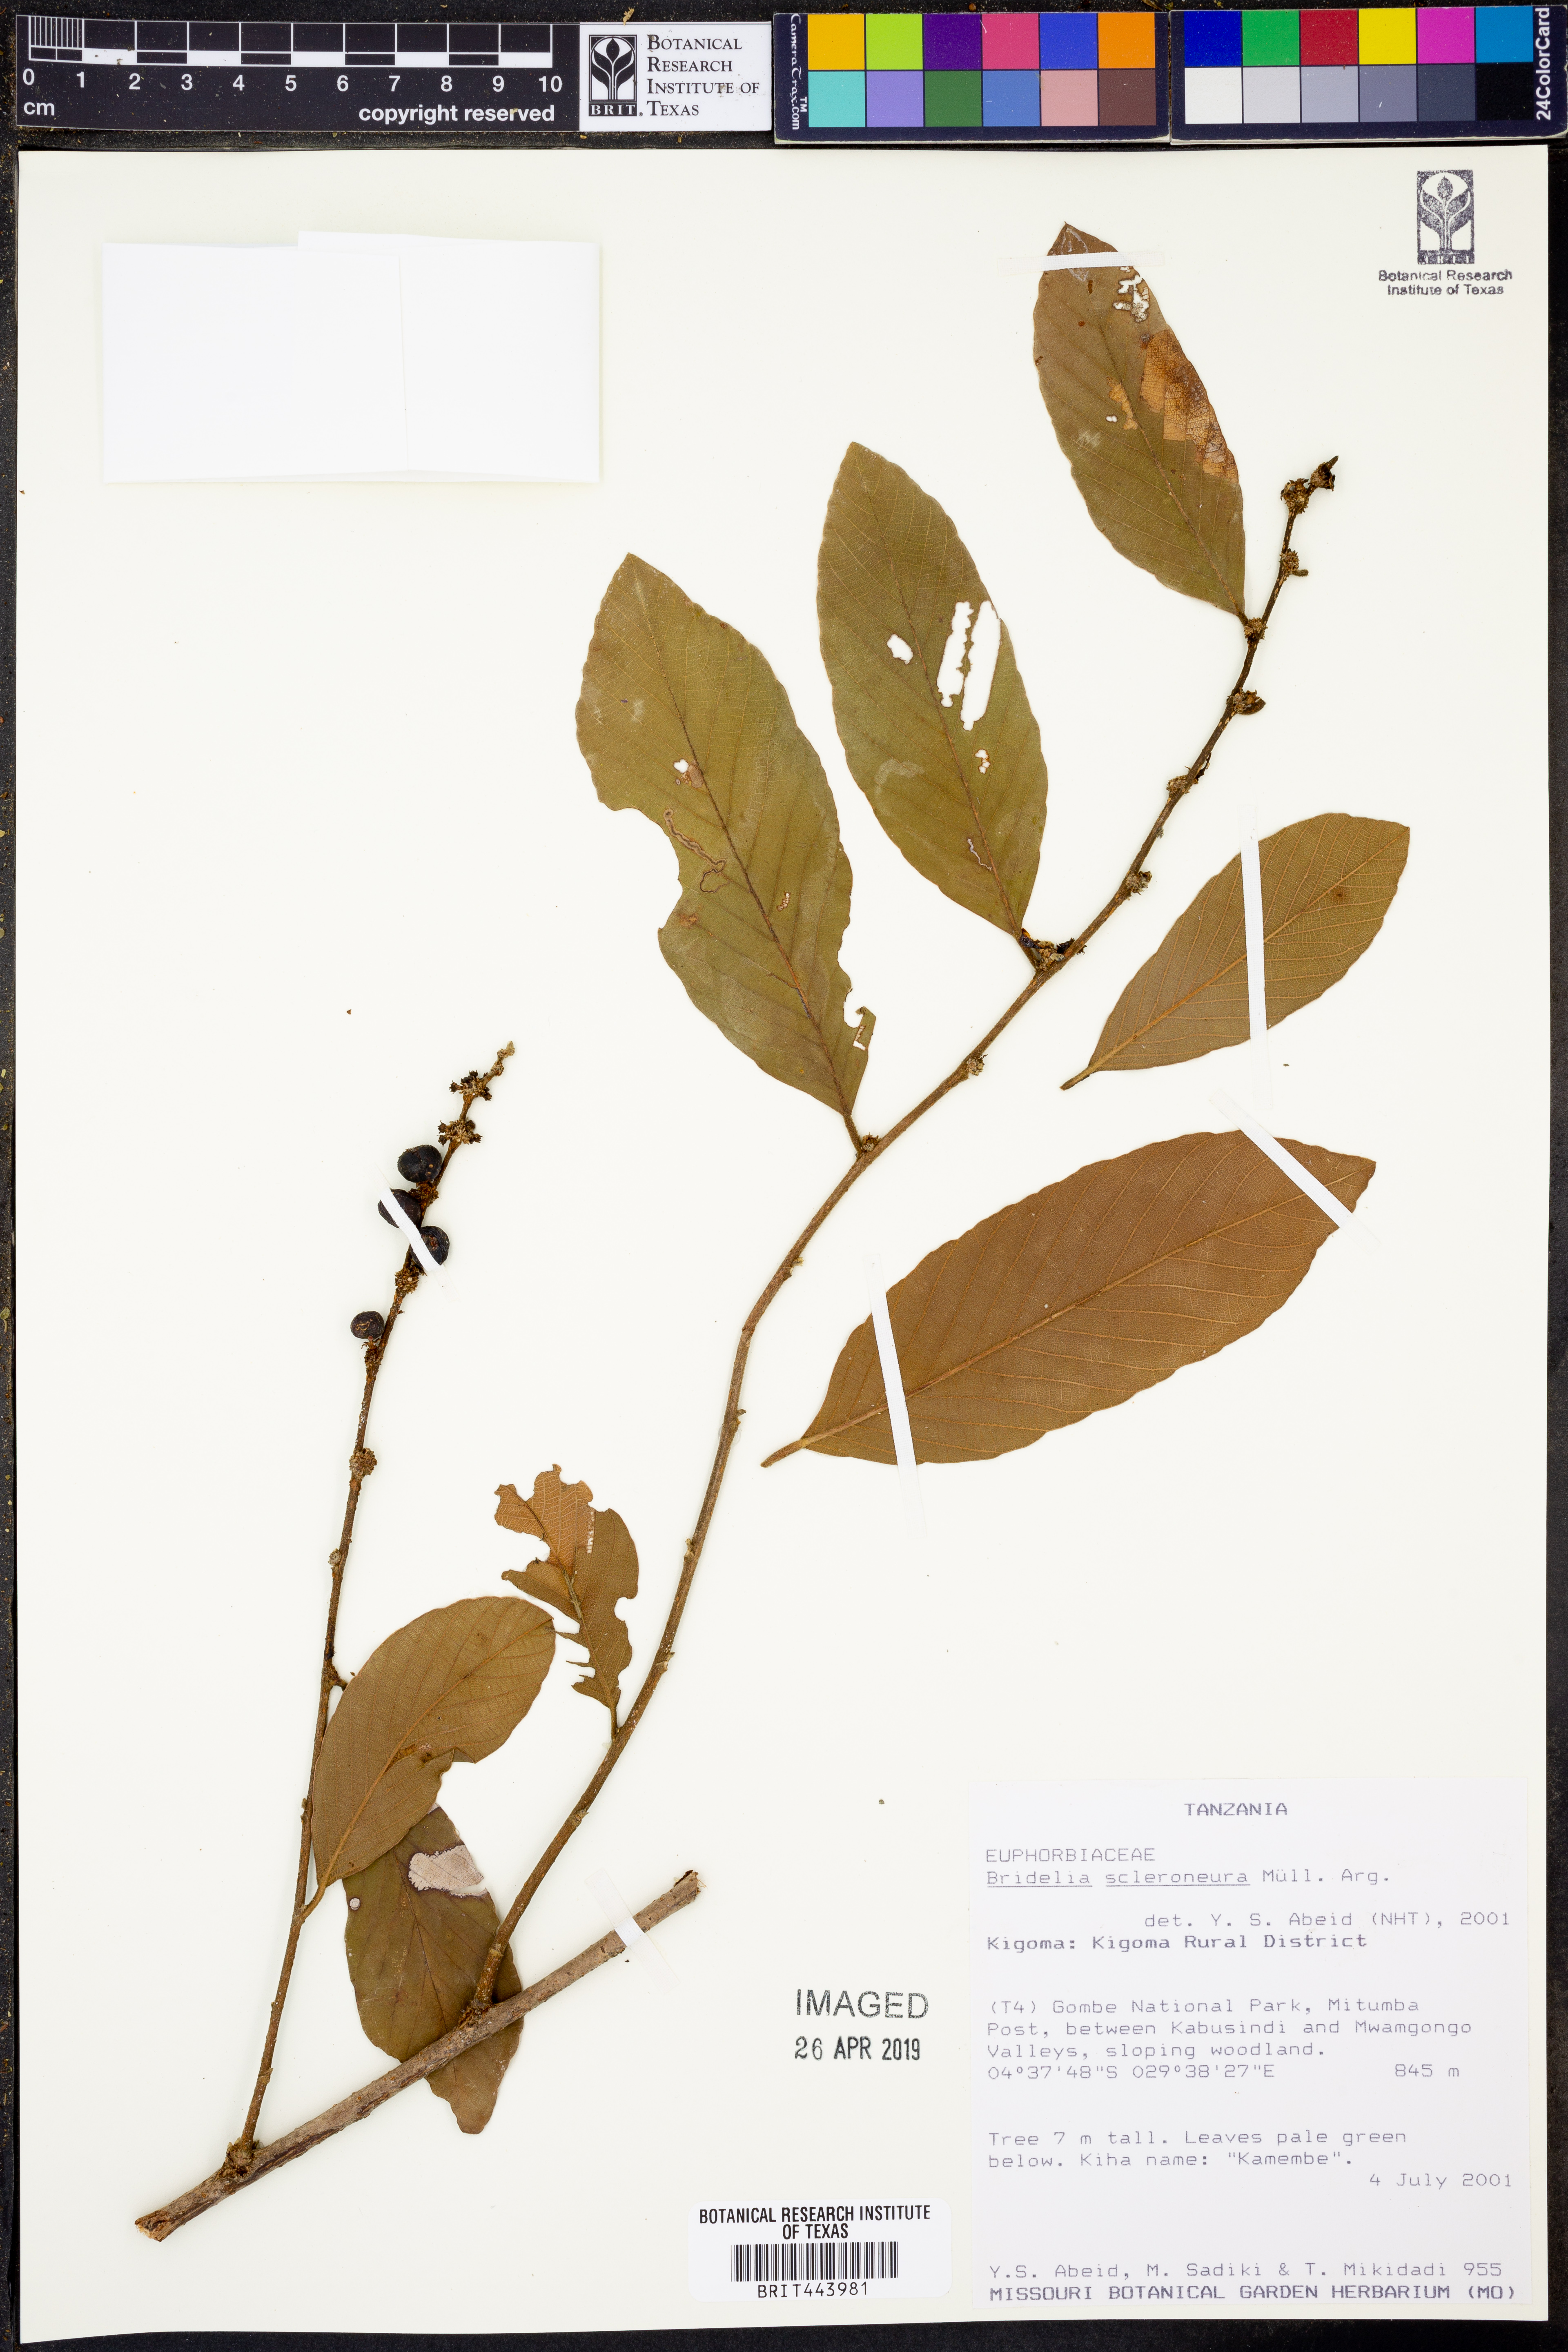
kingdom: Plantae
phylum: Tracheophyta
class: Magnoliopsida
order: Malpighiales
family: Phyllanthaceae
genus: Bridelia
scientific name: Bridelia scleroneura
